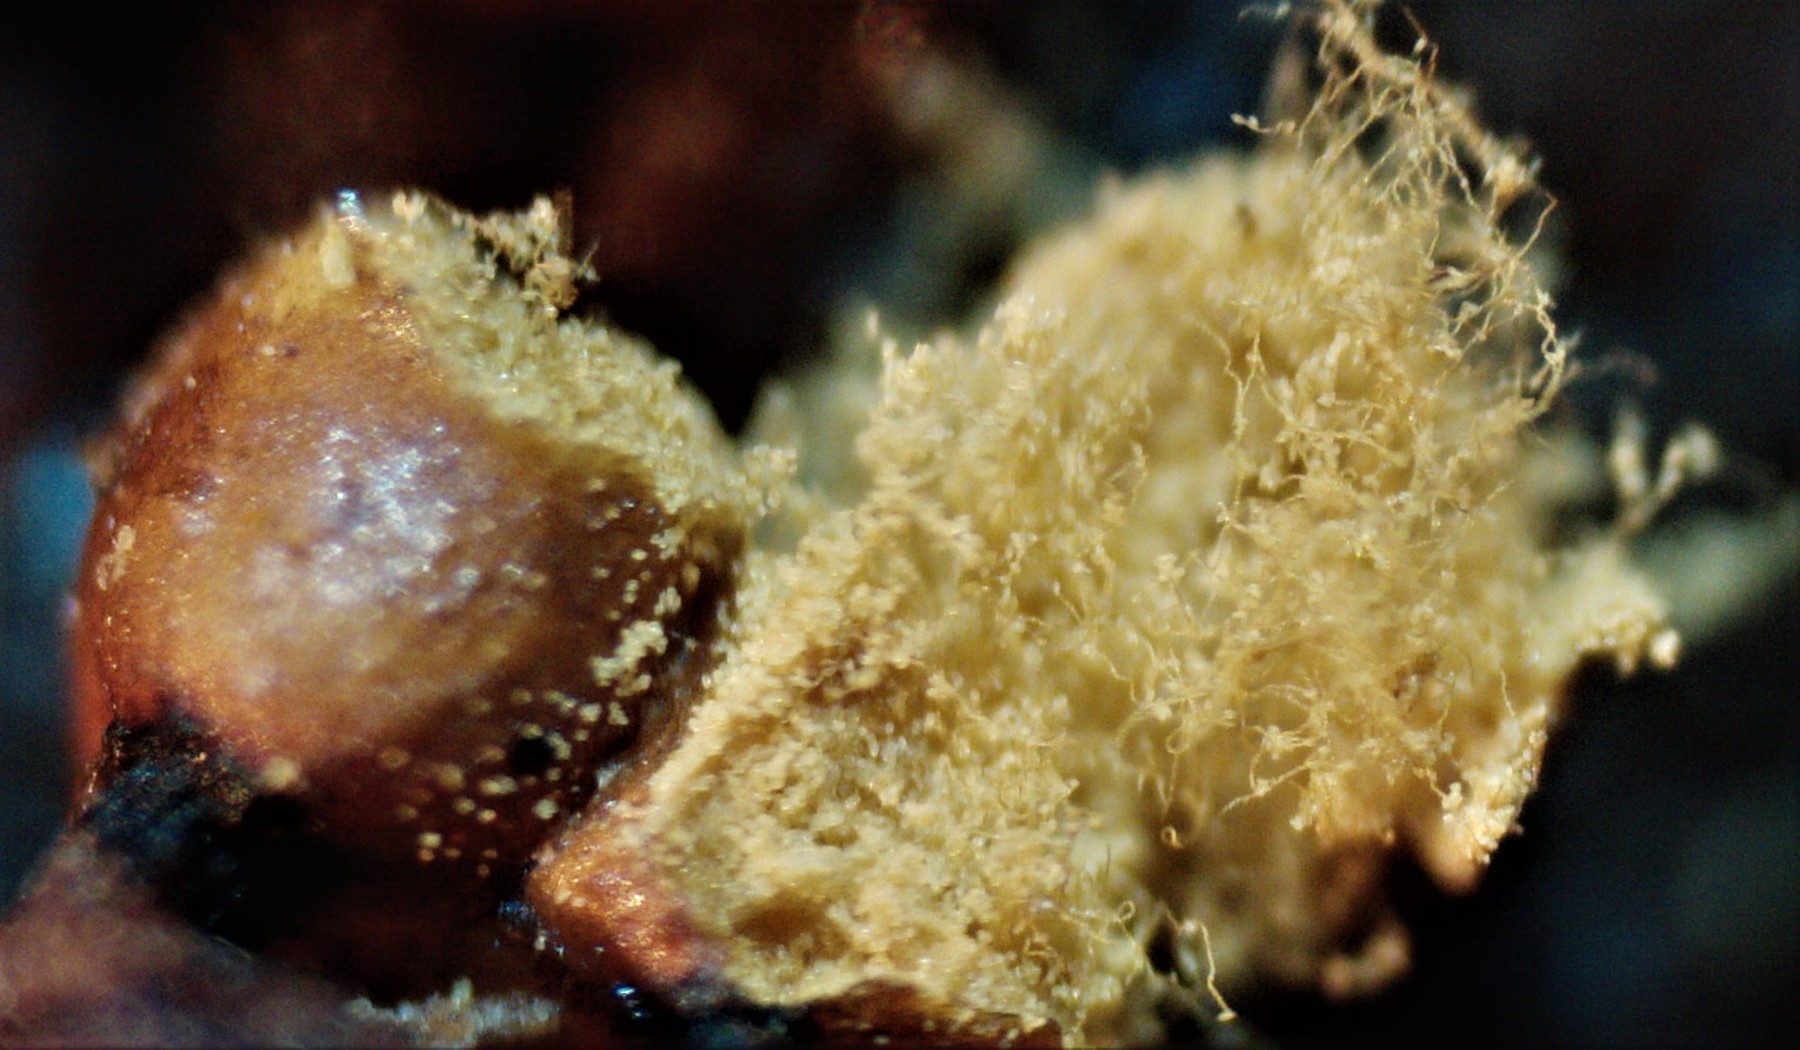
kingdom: Protozoa
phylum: Mycetozoa
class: Myxomycetes
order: Trichiales
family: Trichiaceae
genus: Trichia
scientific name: Trichia varia
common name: foranderlig hårbold
